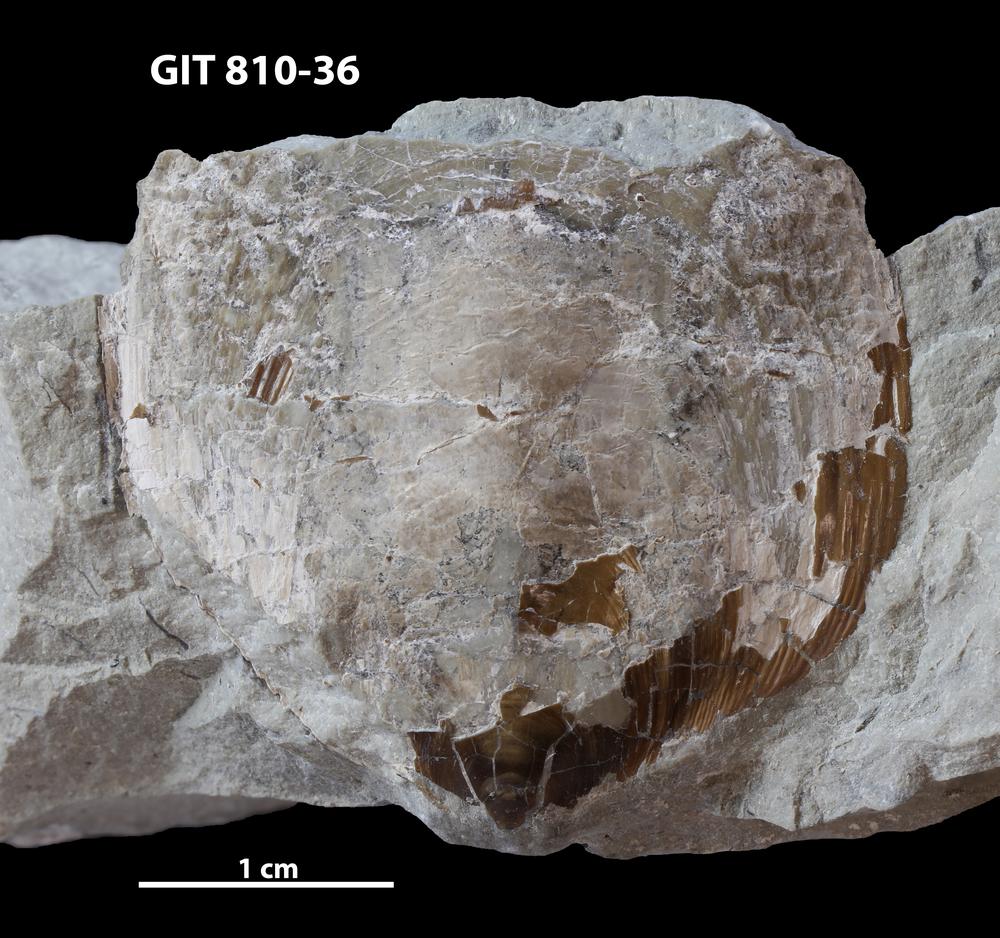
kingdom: Animalia
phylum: Brachiopoda
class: Lingulata
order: Lingulida
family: Pseudolingulidae
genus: Pseudolingula
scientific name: Pseudolingula Crania quadrata
